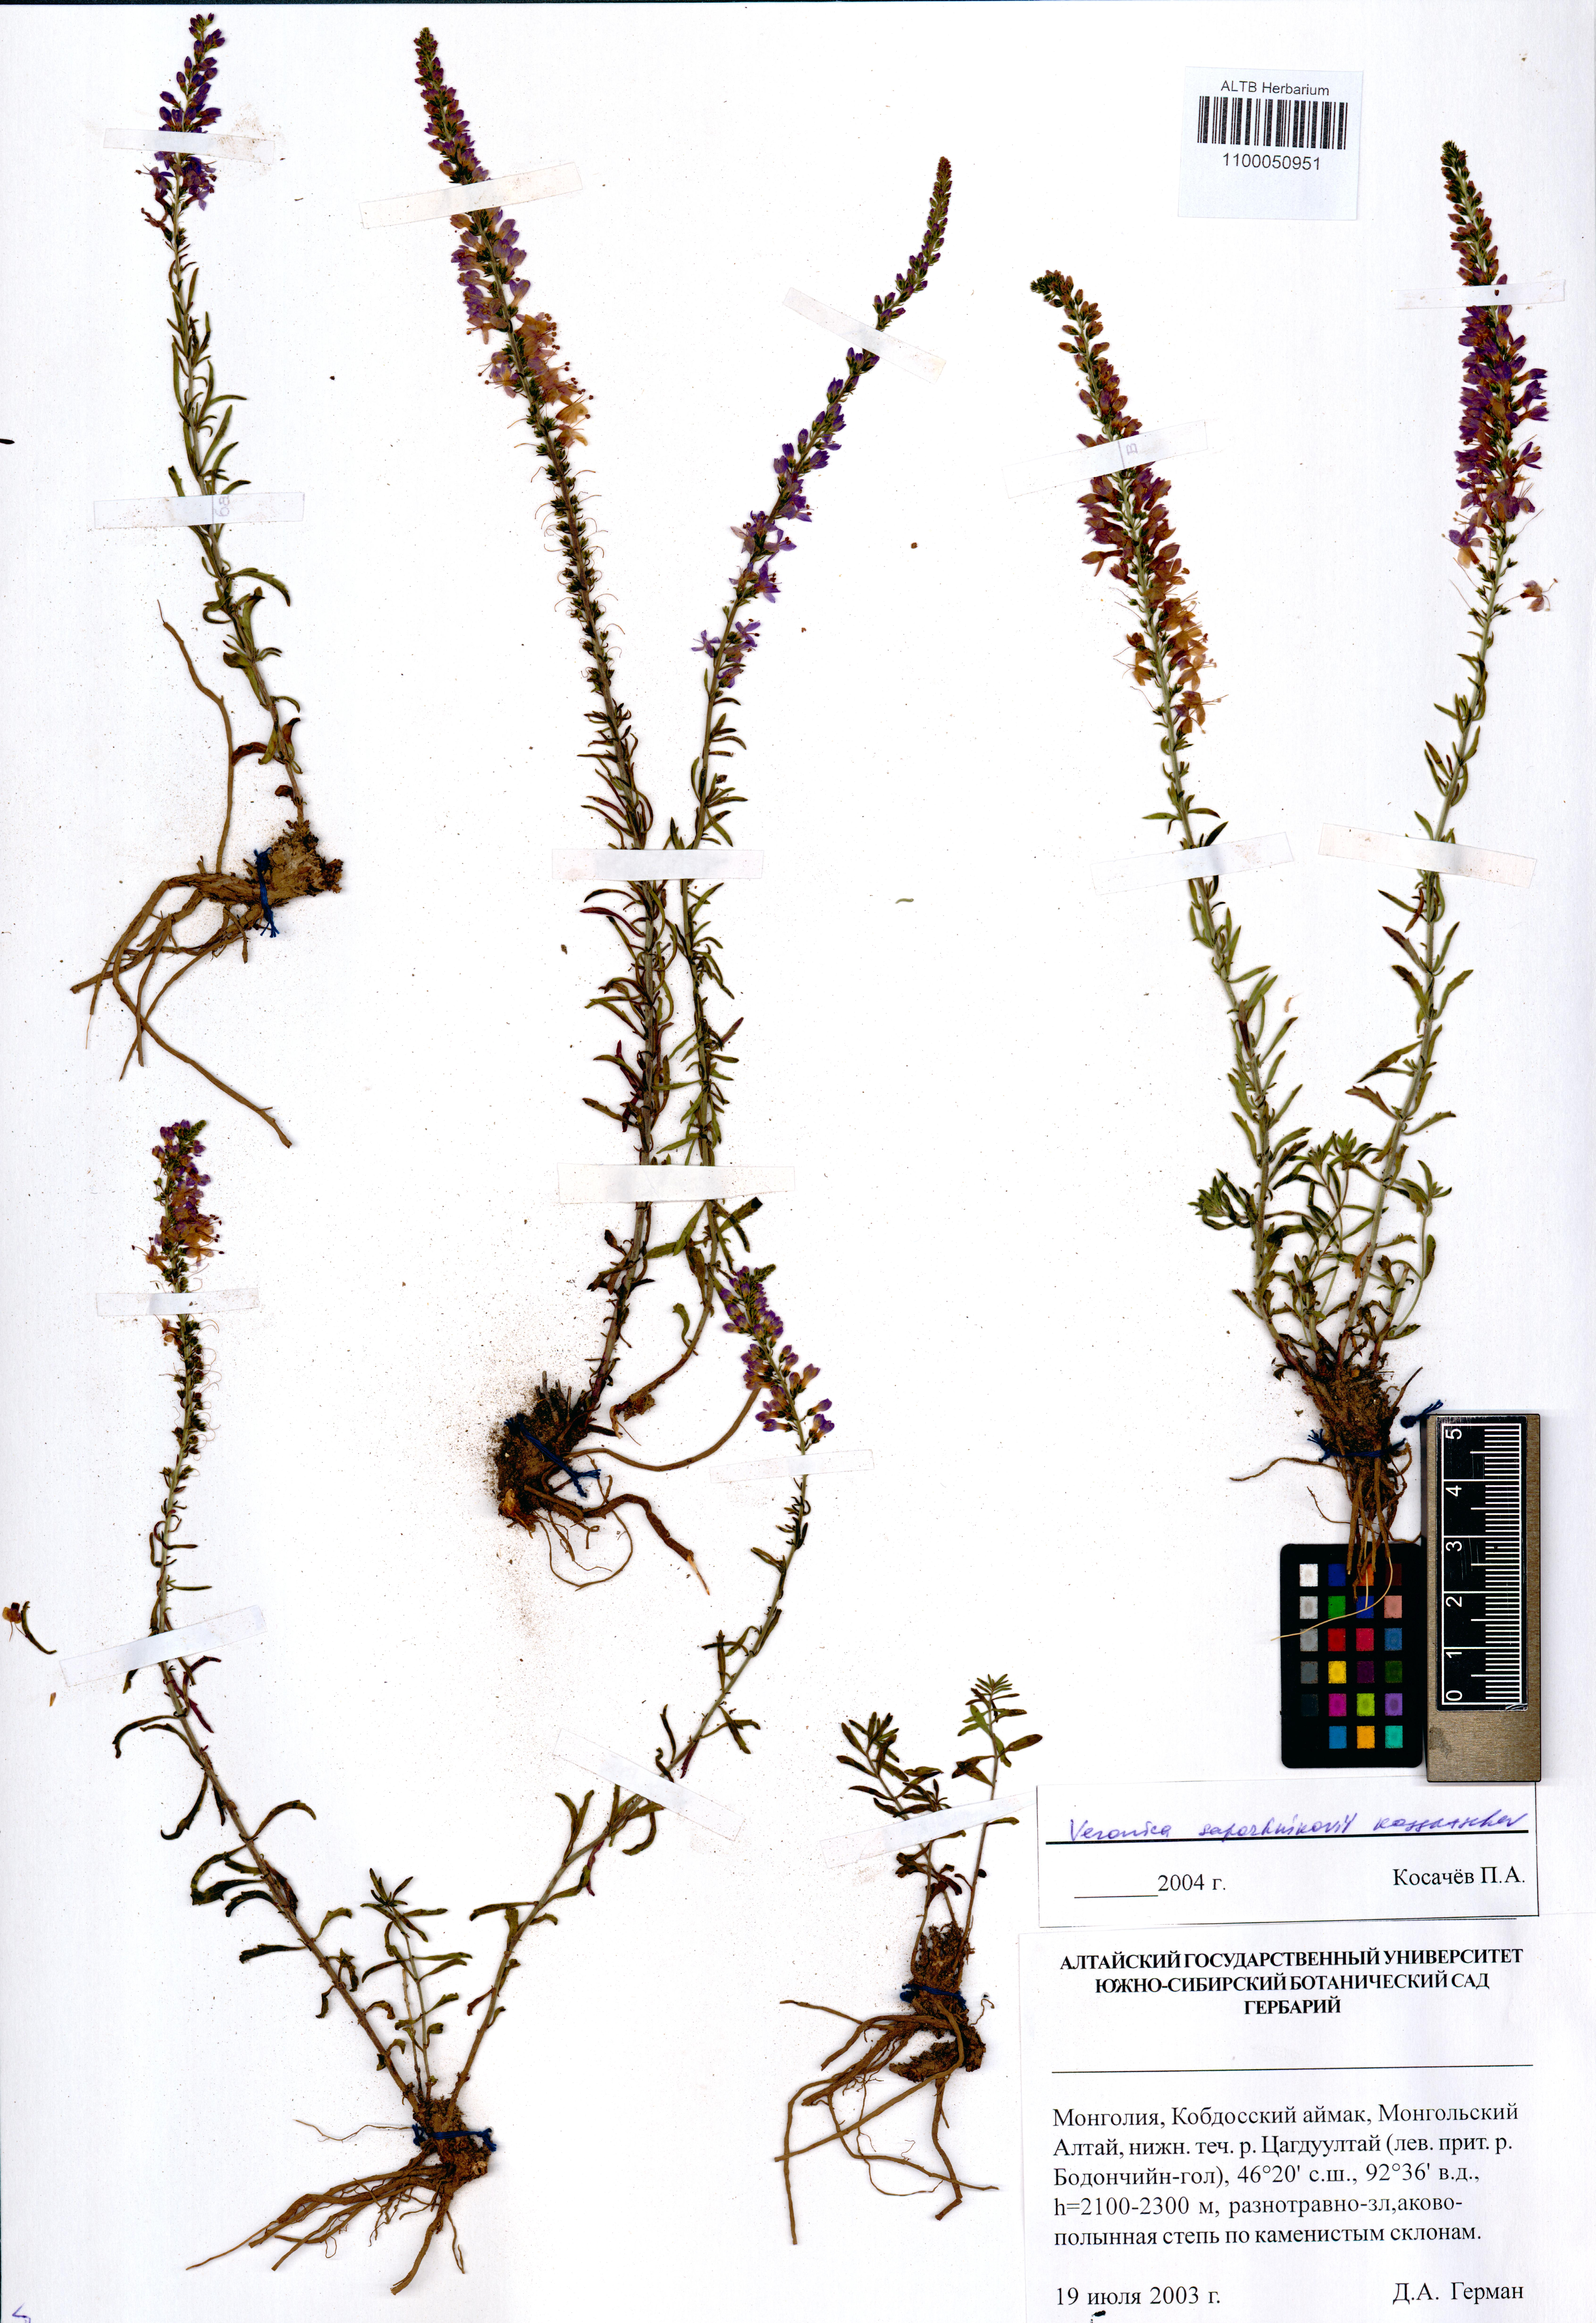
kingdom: Plantae
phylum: Tracheophyta
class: Magnoliopsida
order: Lamiales
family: Plantaginaceae
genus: Veronica
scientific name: Veronica sapozhnikovii
